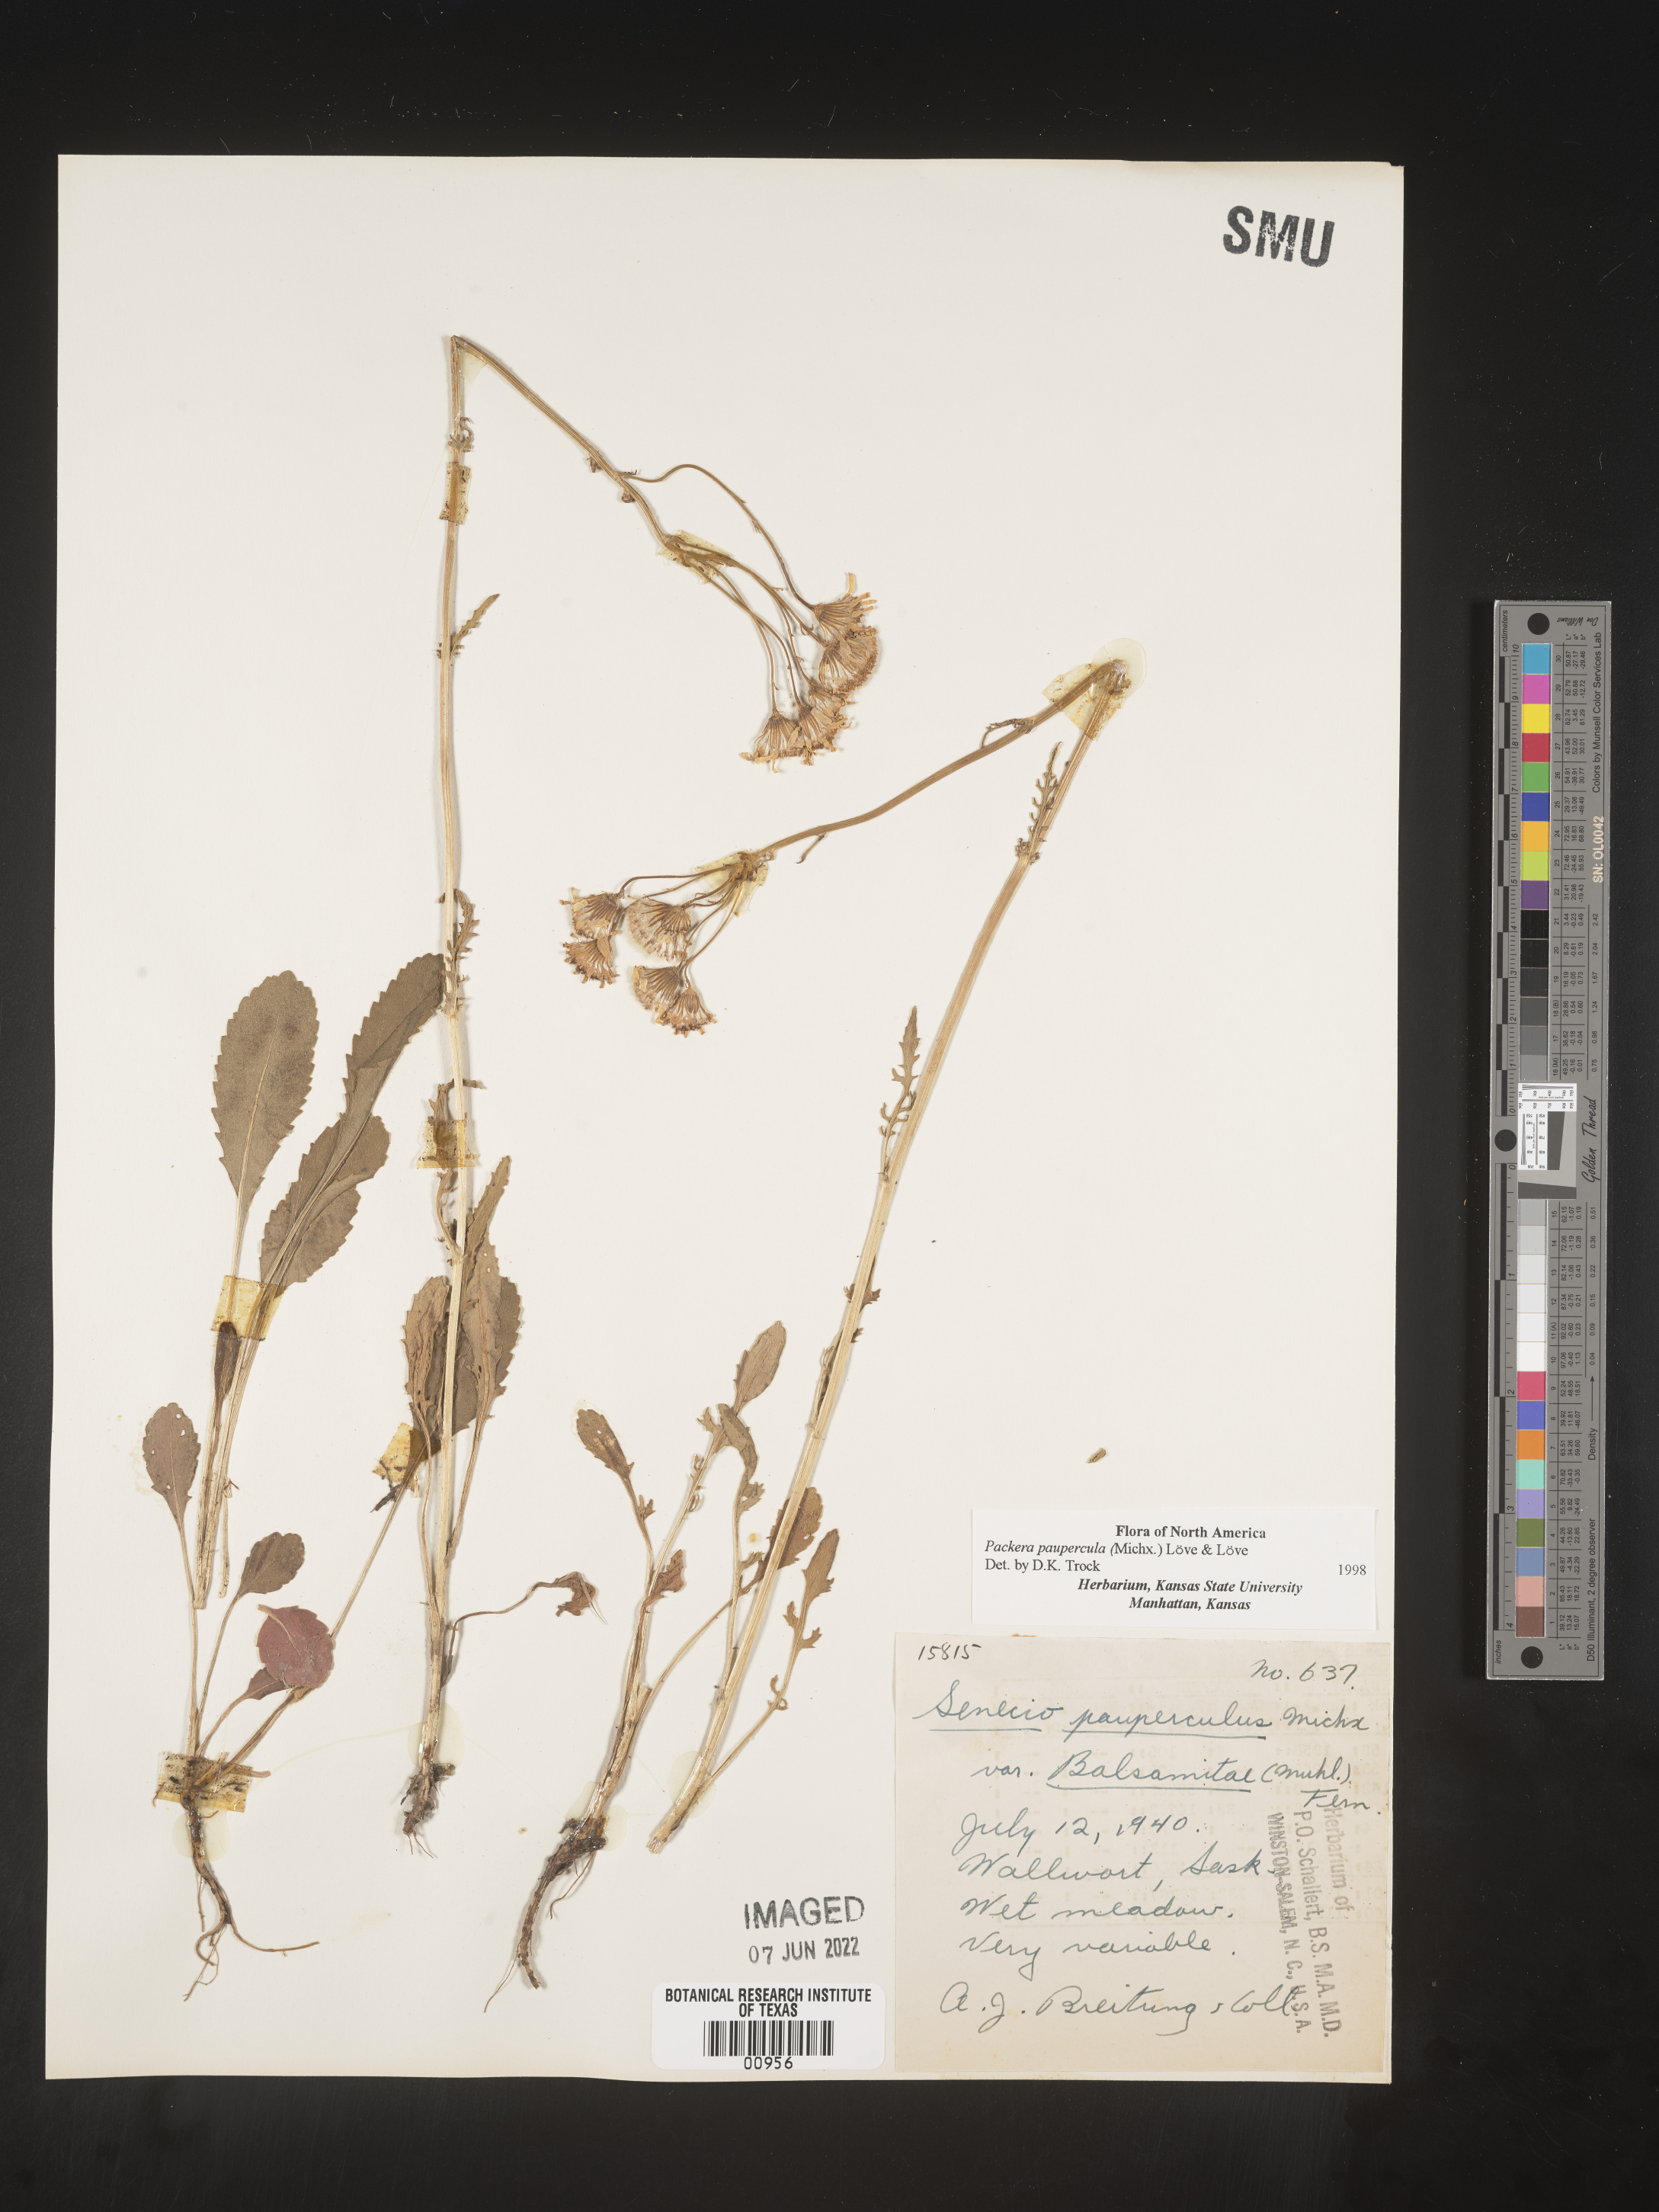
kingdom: Plantae
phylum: Tracheophyta
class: Magnoliopsida
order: Asterales
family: Asteraceae
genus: Packera
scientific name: Packera paupercula
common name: Balsam groundsel
